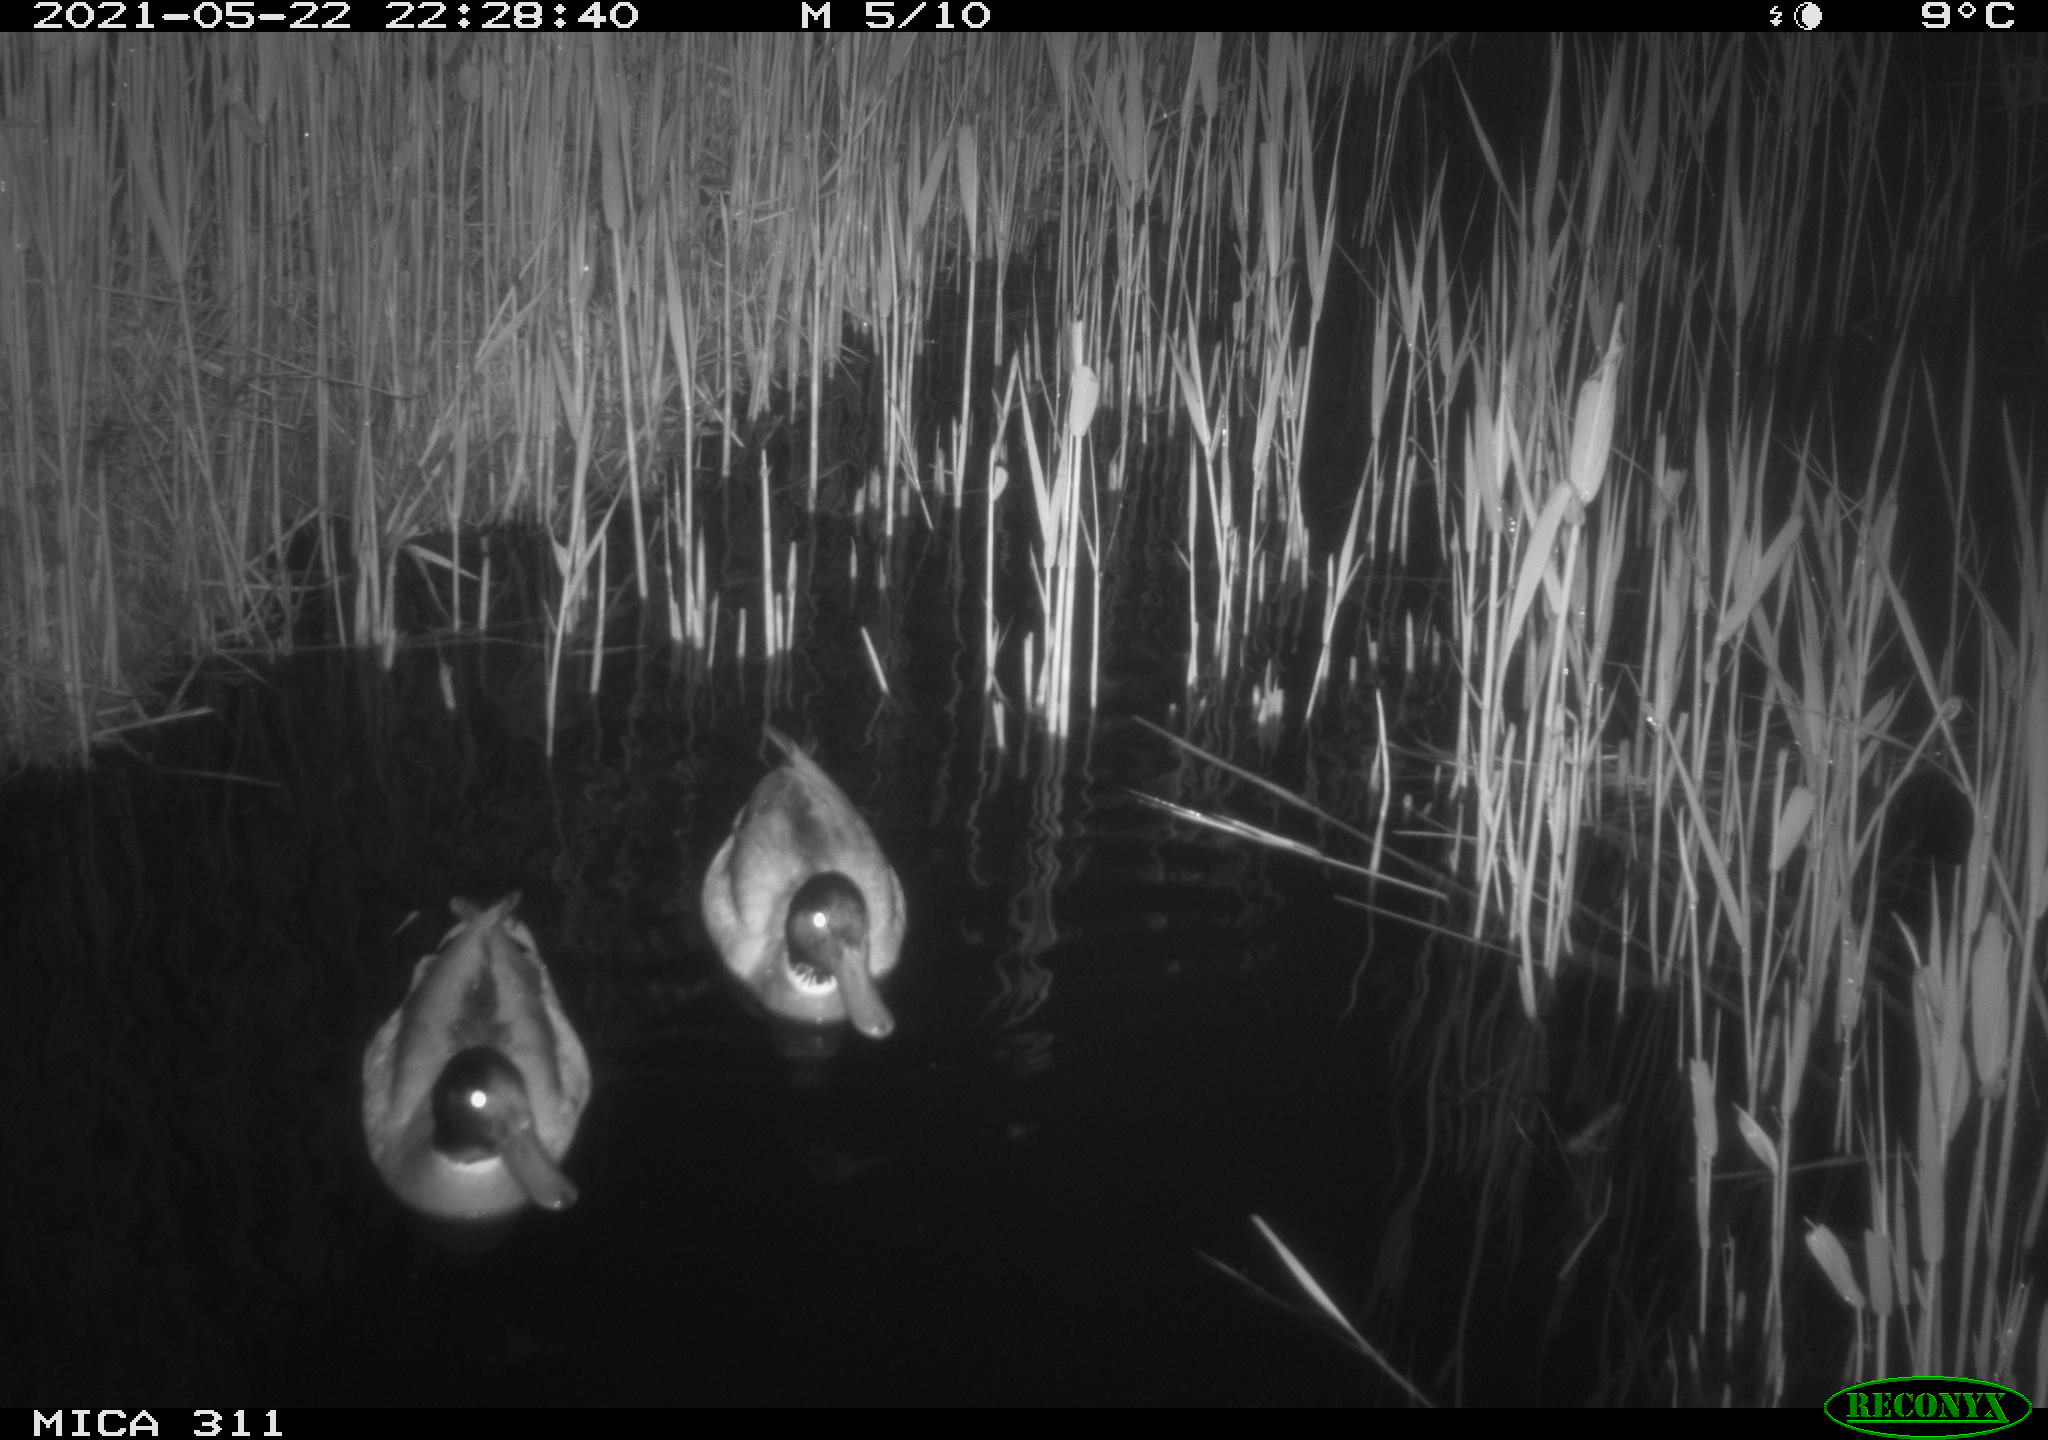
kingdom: Animalia
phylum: Chordata
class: Aves
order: Anseriformes
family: Anatidae
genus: Anas
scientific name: Anas
